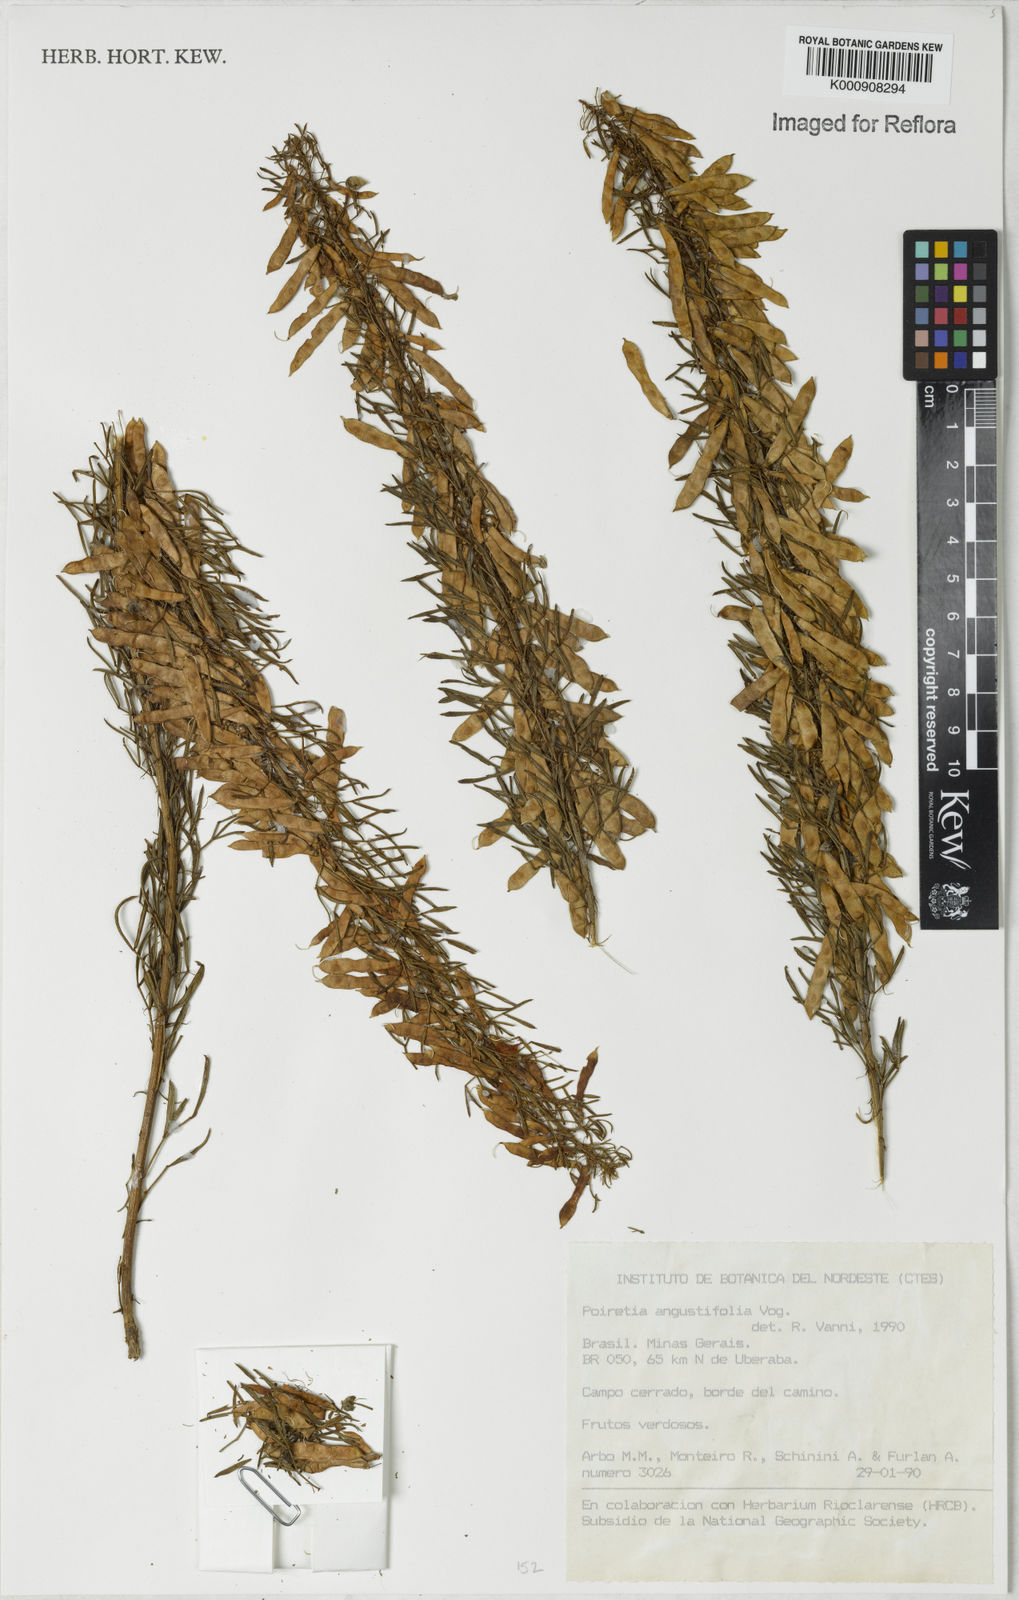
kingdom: Plantae
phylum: Tracheophyta
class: Magnoliopsida
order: Fabales
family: Fabaceae
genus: Poiretia
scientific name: Poiretia angustifolia
